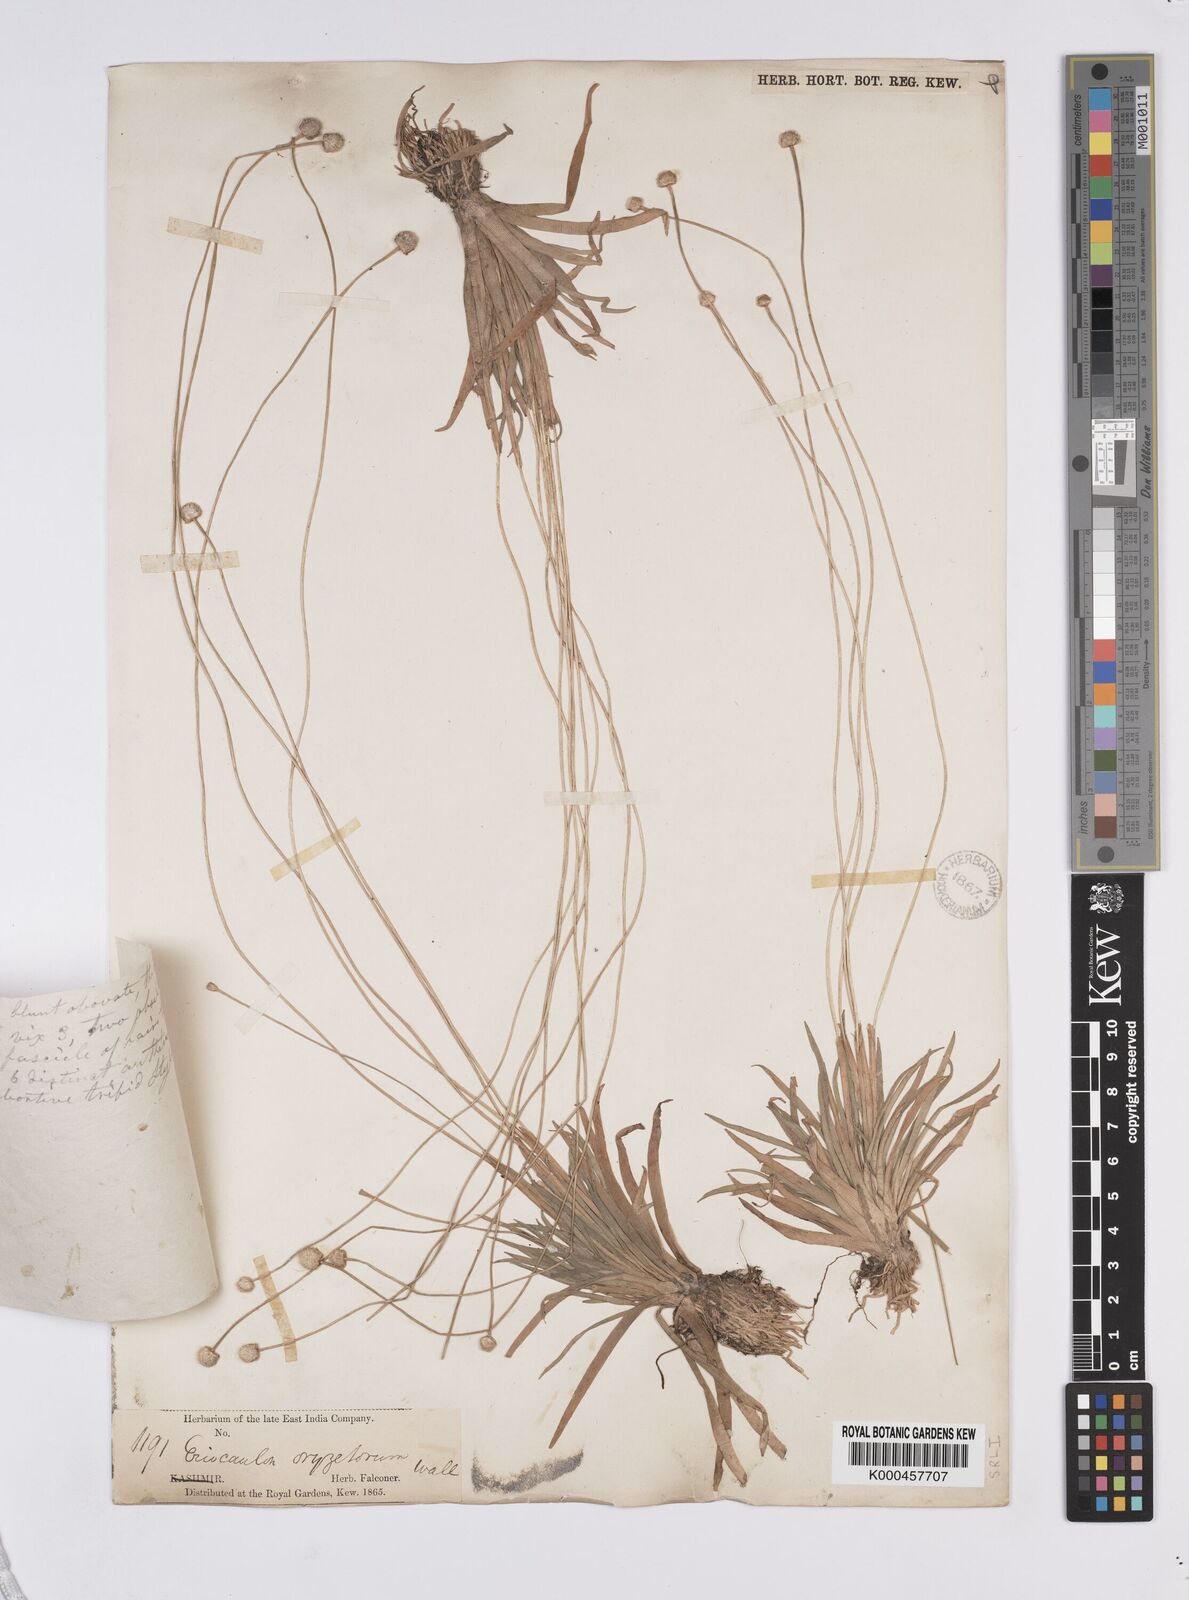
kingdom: Plantae
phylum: Tracheophyta
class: Liliopsida
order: Poales
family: Eriocaulaceae
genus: Eriocaulon
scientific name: Eriocaulon oryzetorum
